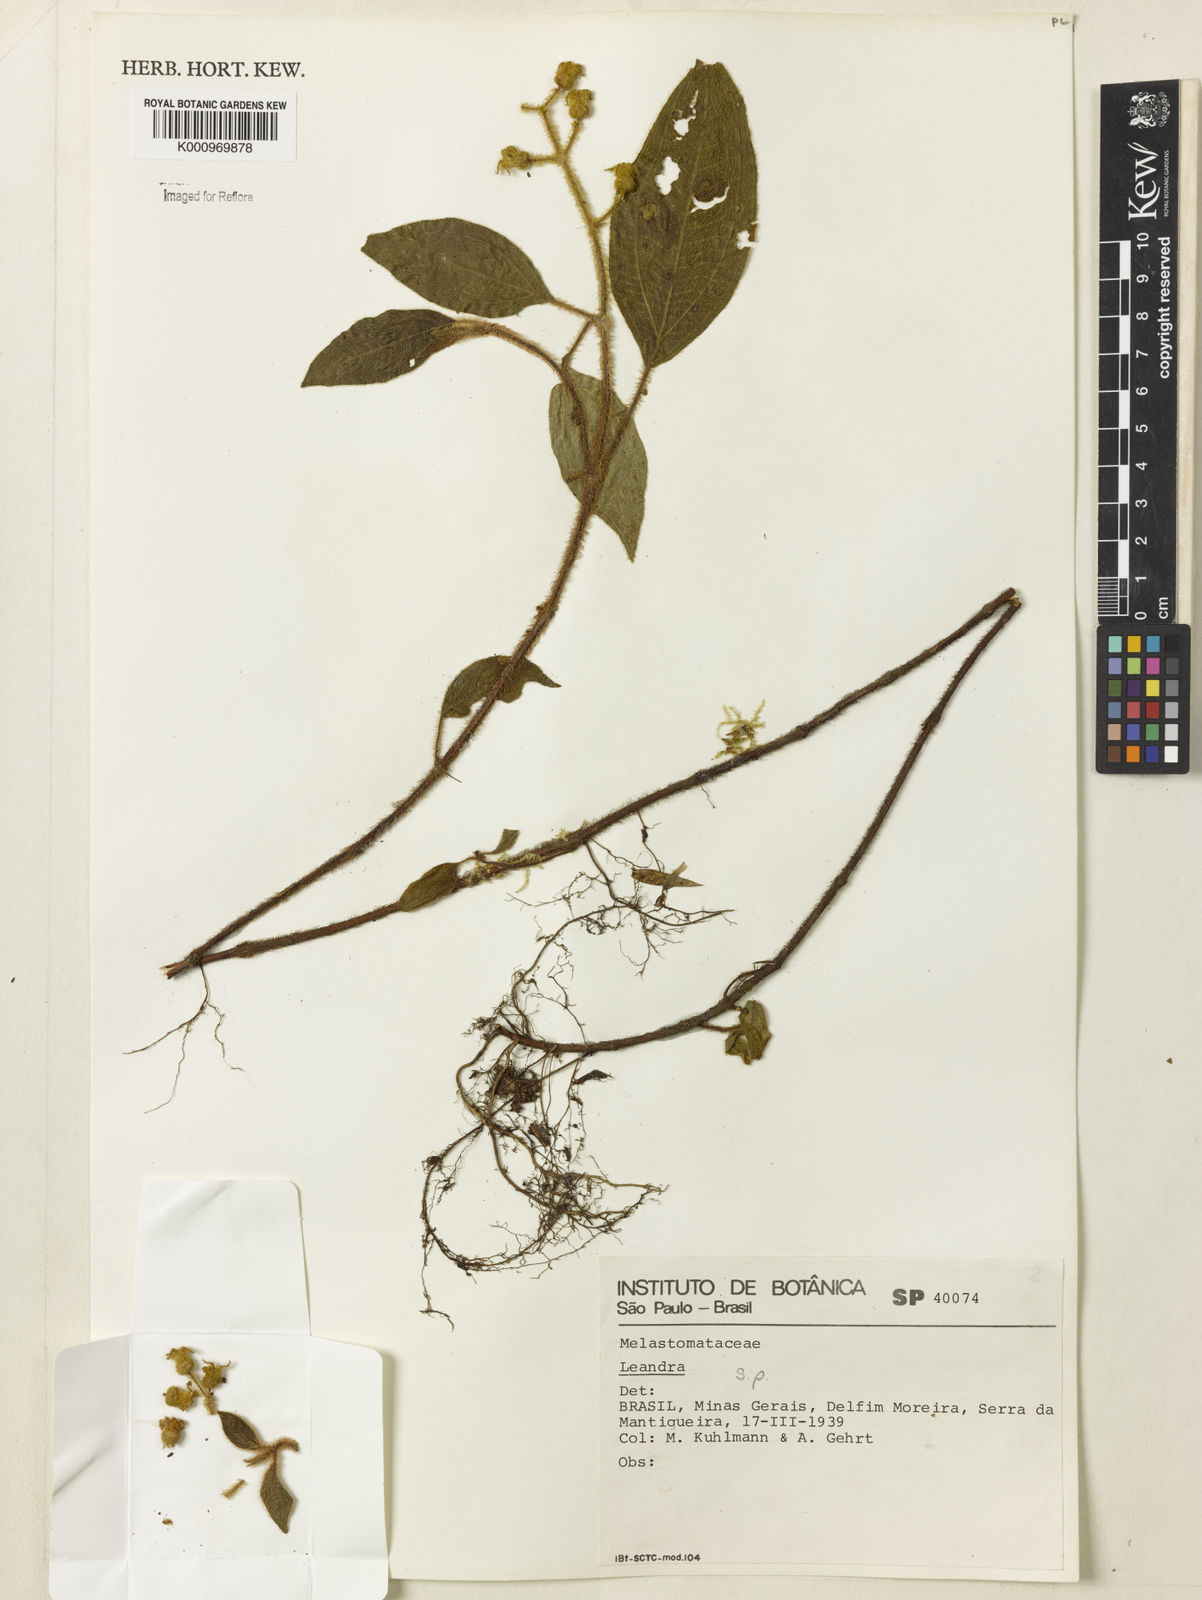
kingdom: Plantae
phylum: Tracheophyta
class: Magnoliopsida
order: Myrtales
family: Melastomataceae
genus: Miconia
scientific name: Miconia
